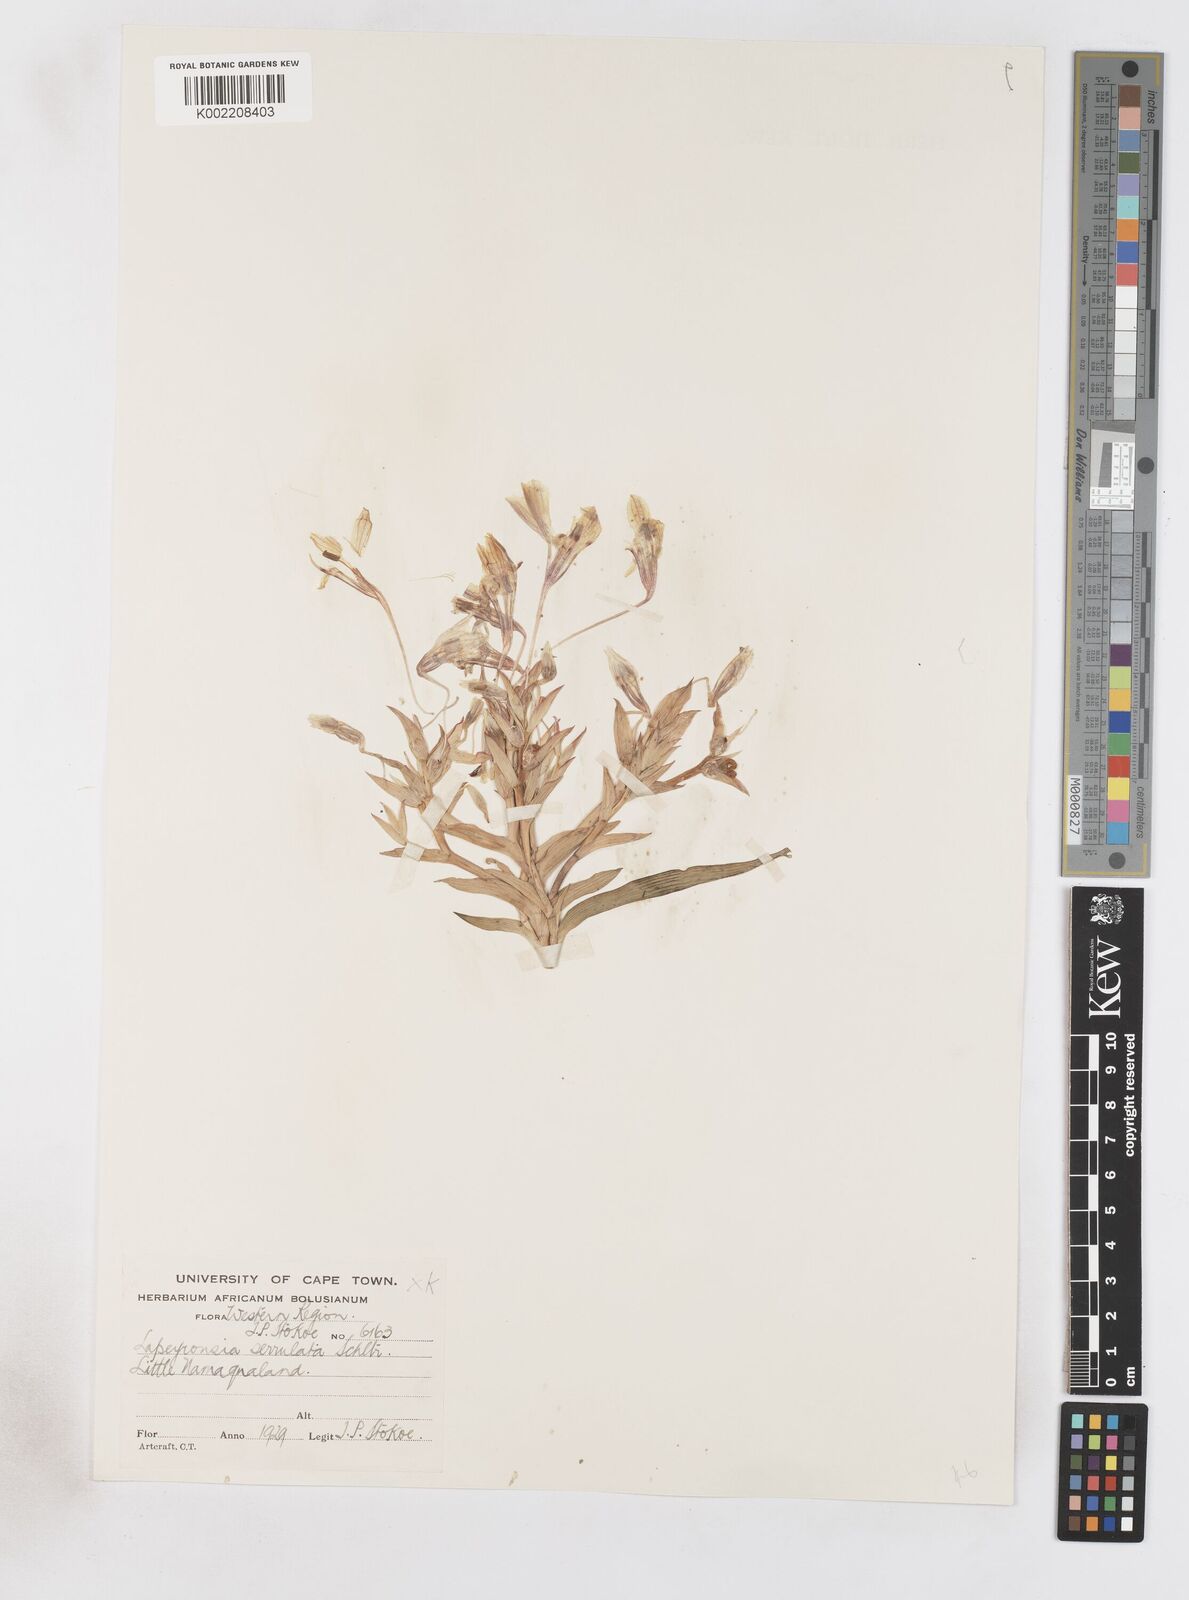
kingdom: Plantae
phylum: Tracheophyta
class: Liliopsida
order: Asparagales
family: Iridaceae
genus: Lapeirousia
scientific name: Lapeirousia fabricii
